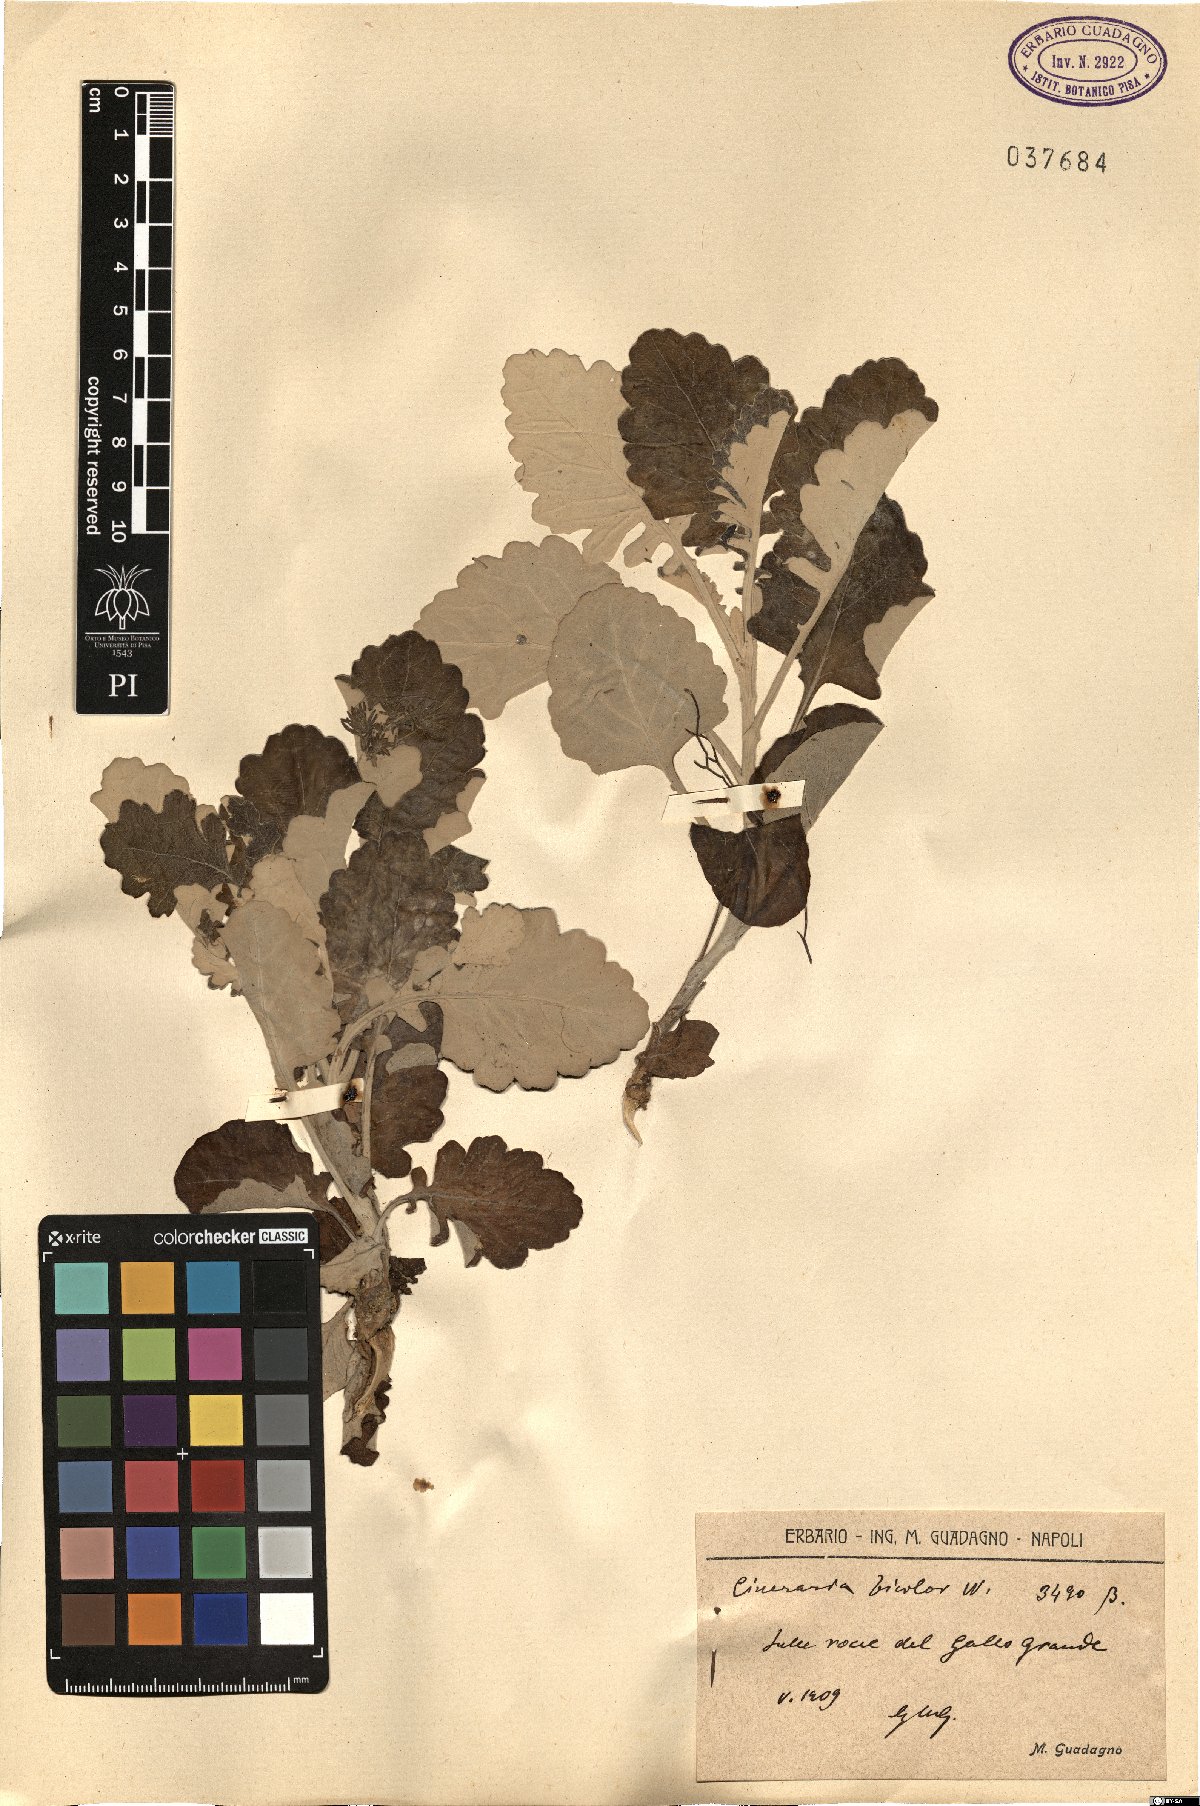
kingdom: Plantae
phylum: Tracheophyta
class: Magnoliopsida
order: Asterales
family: Asteraceae
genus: Jacobaea
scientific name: Jacobaea maritima
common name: Silver ragwort
